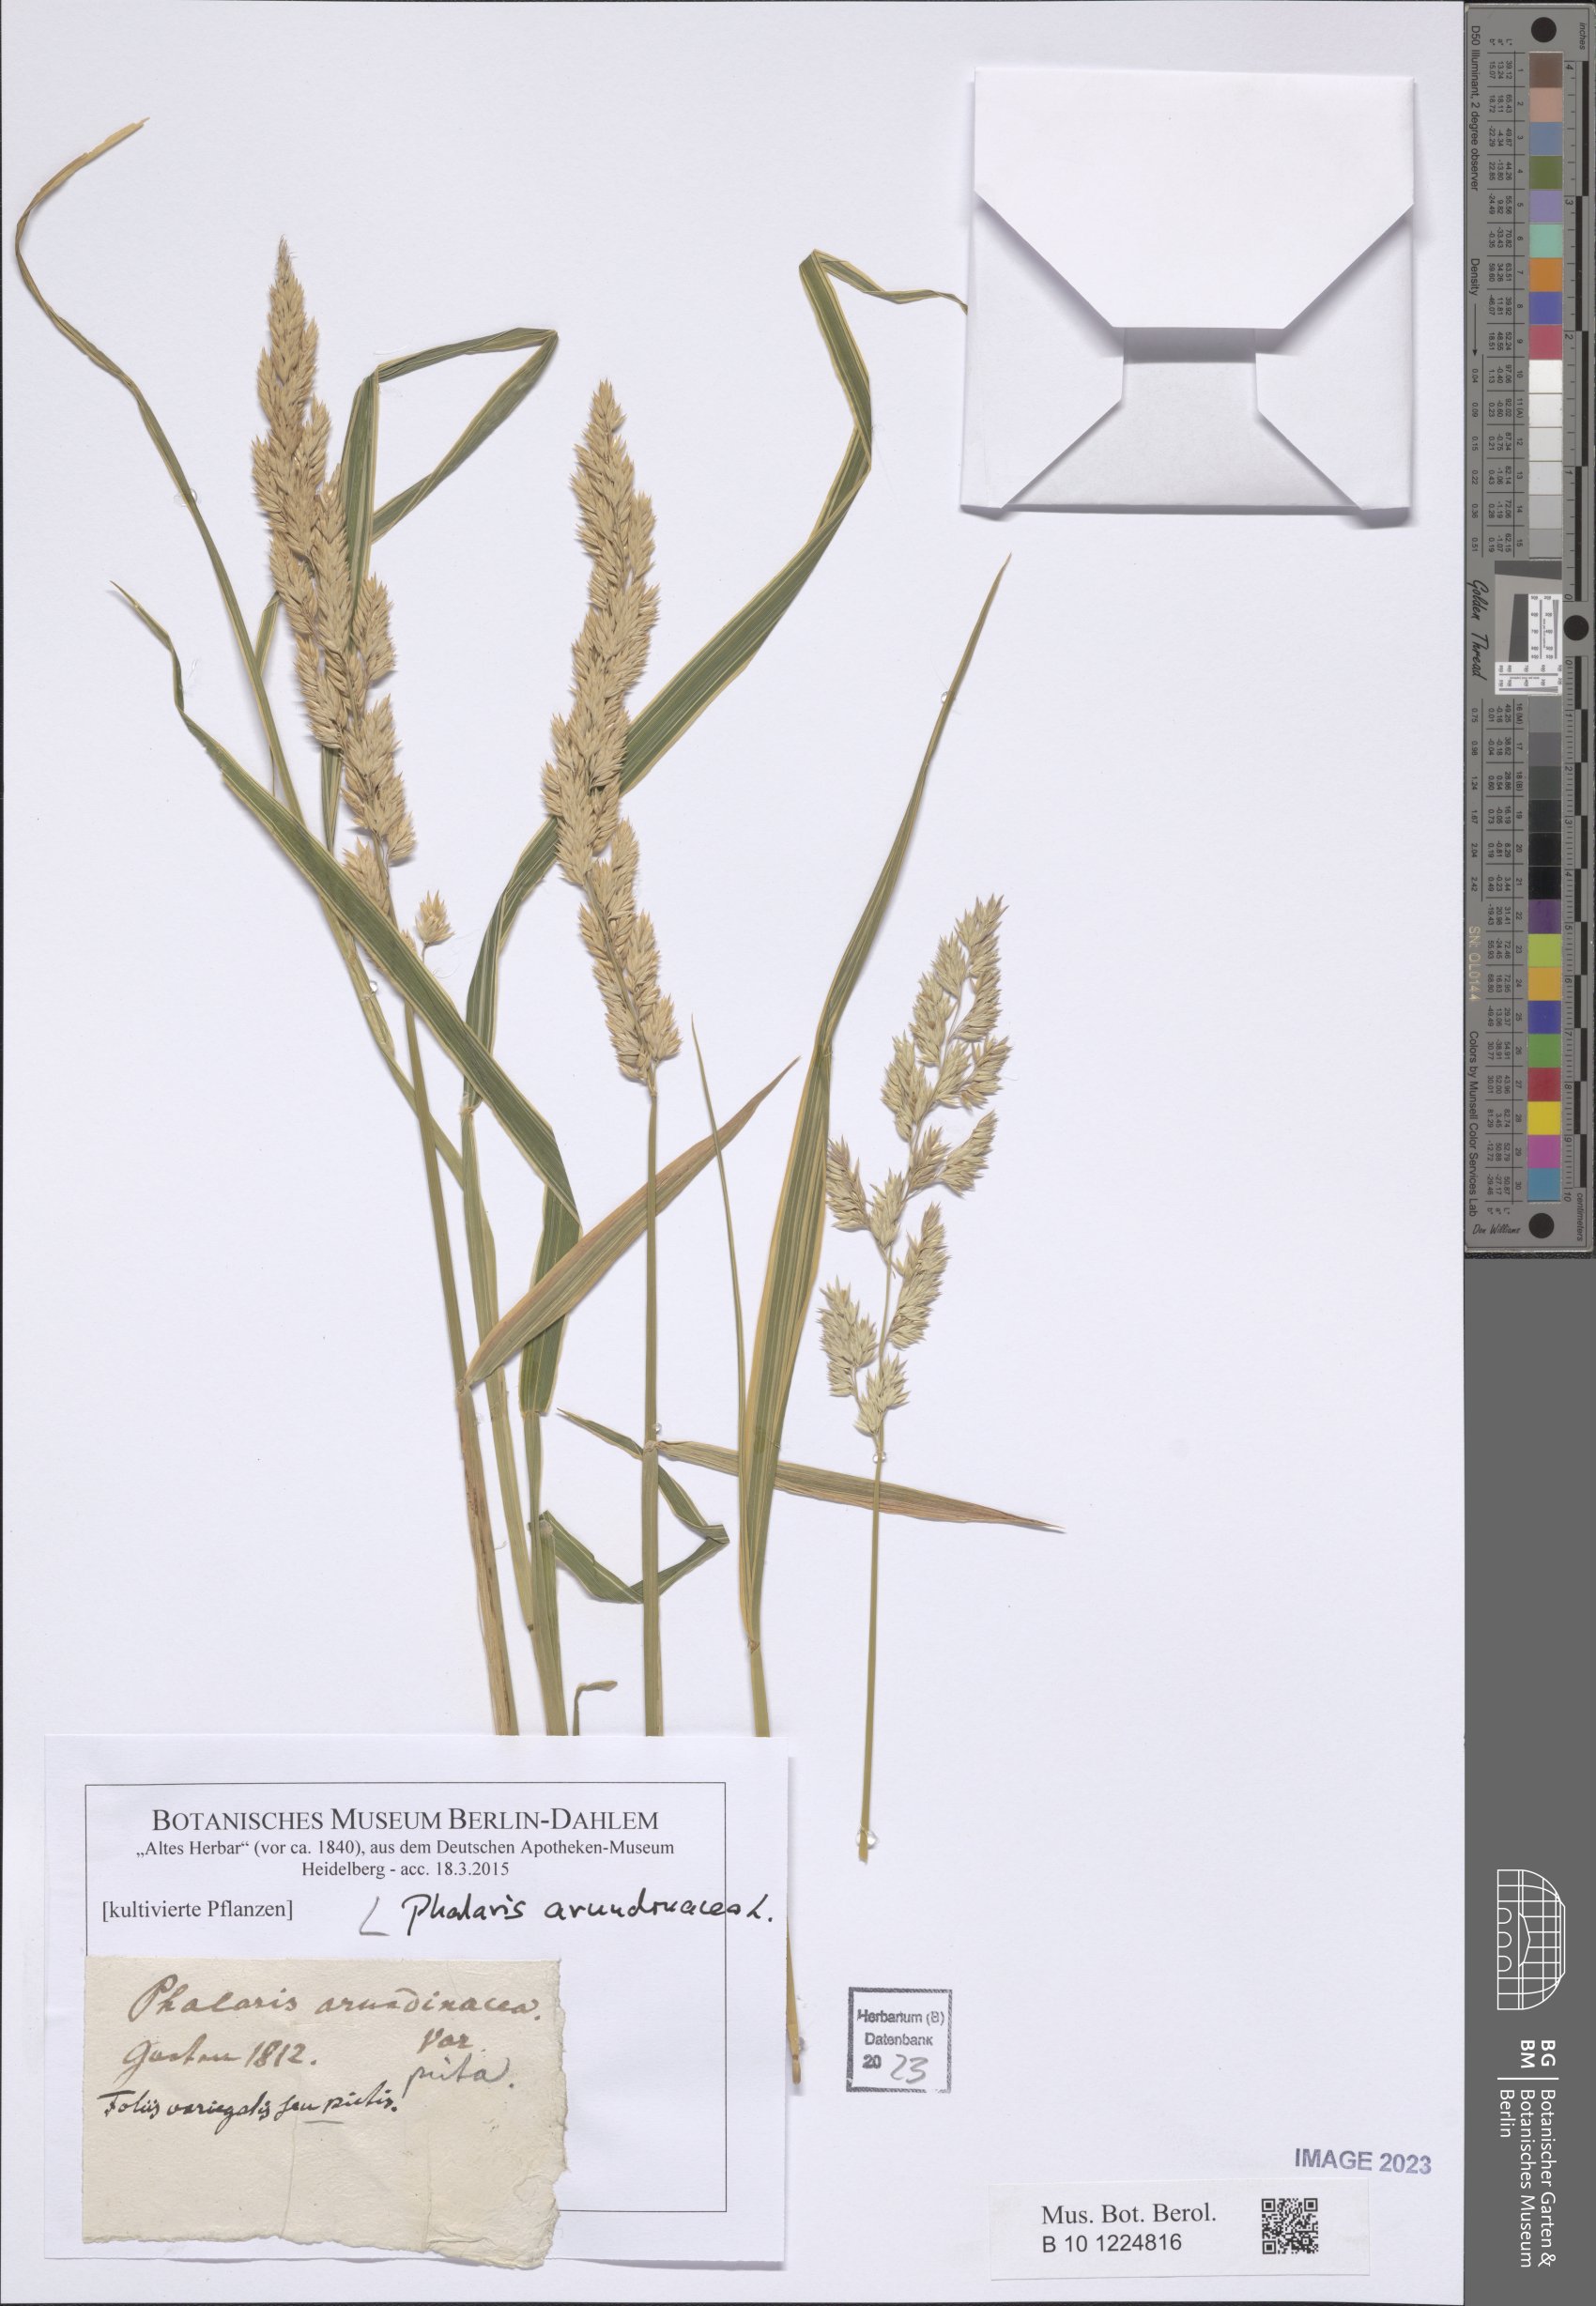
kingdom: Plantae
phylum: Tracheophyta
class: Liliopsida
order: Poales
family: Poaceae
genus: Phalaris
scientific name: Phalaris arundinacea
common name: Reed canary-grass
